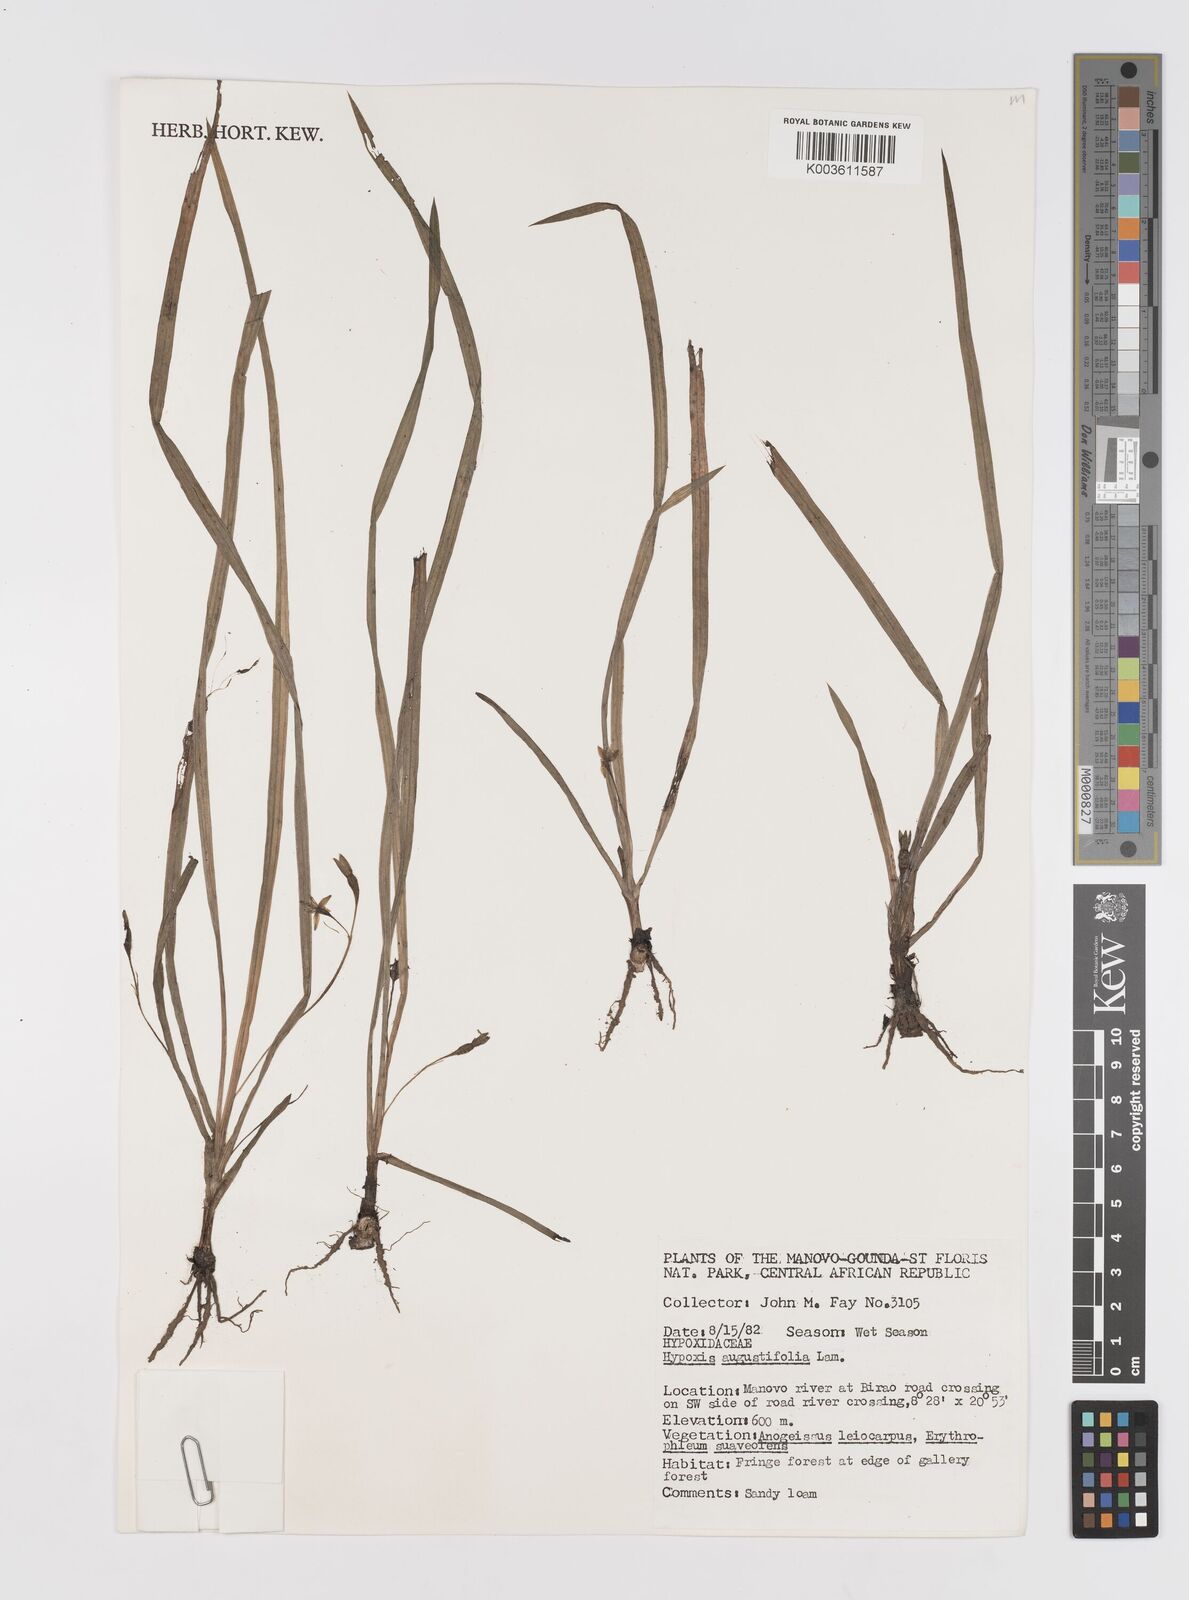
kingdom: Plantae
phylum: Tracheophyta
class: Liliopsida
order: Asparagales
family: Hypoxidaceae
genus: Hypoxis
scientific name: Hypoxis angustifolia
